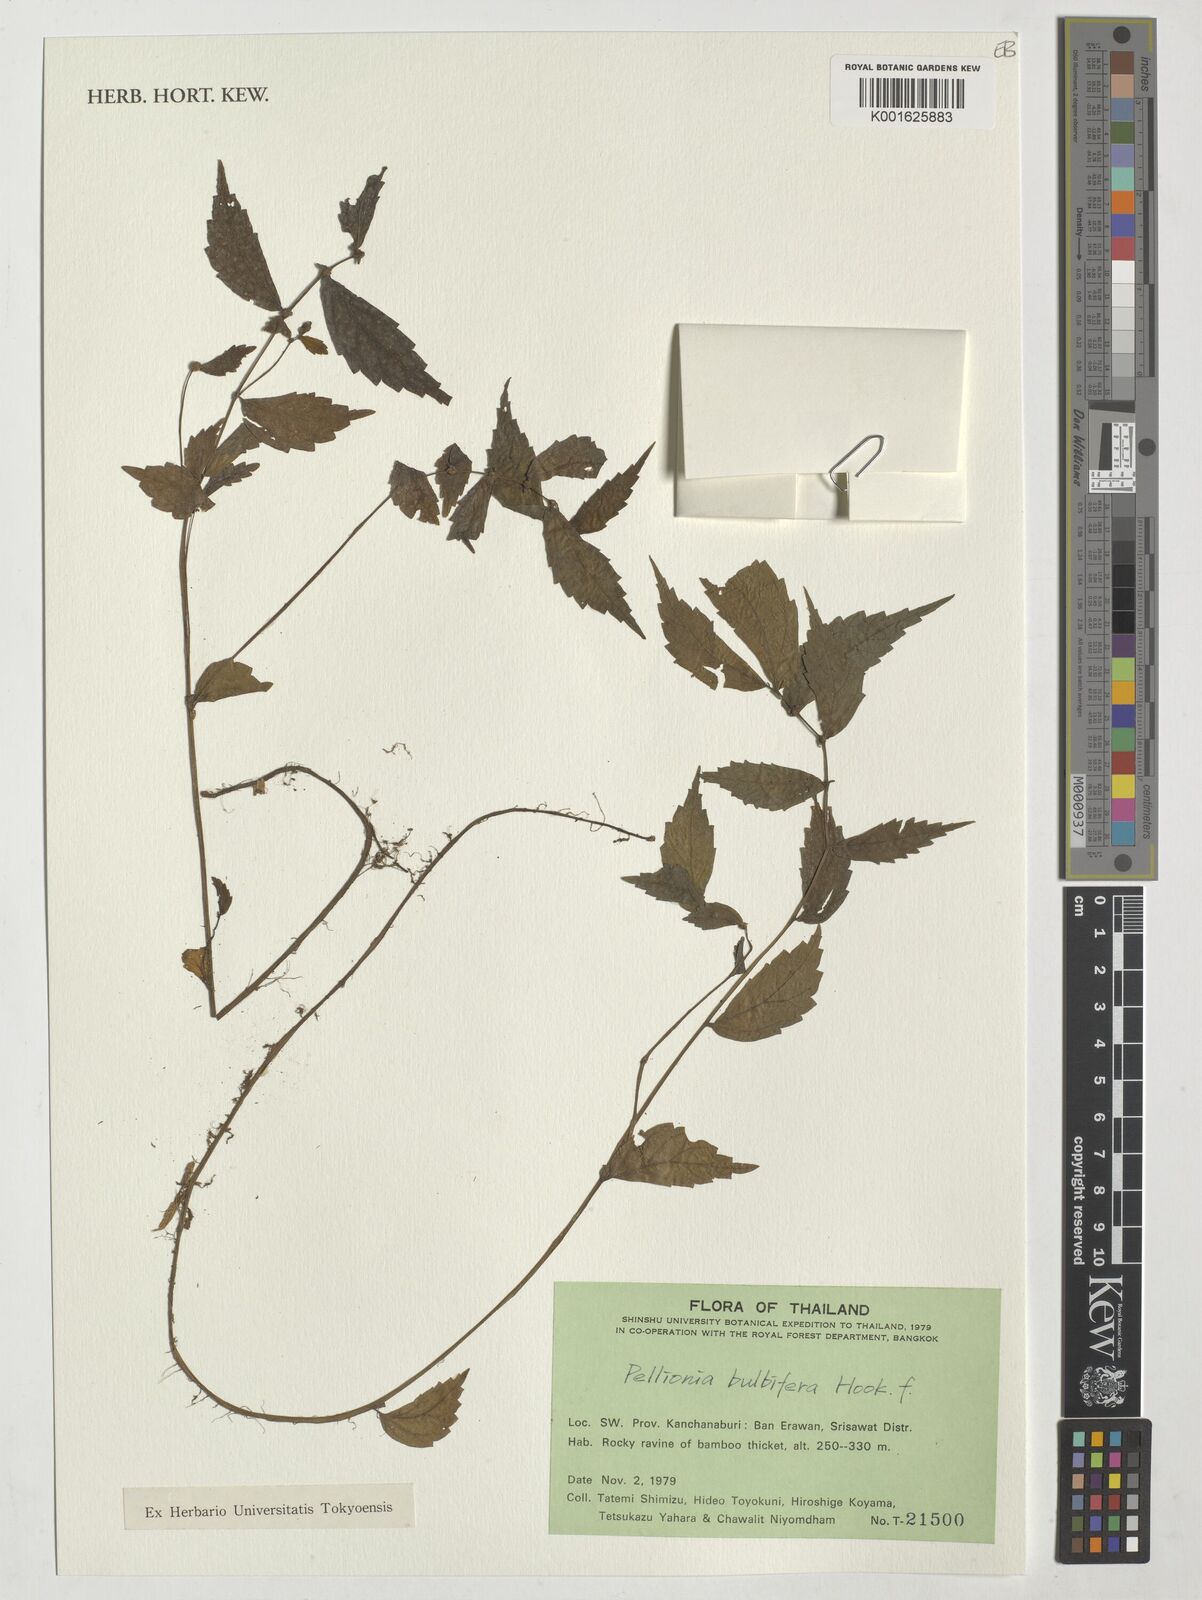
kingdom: Plantae
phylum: Tracheophyta
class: Magnoliopsida
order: Rosales
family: Urticaceae
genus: Elatostema
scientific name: Elatostema bulbiferum
